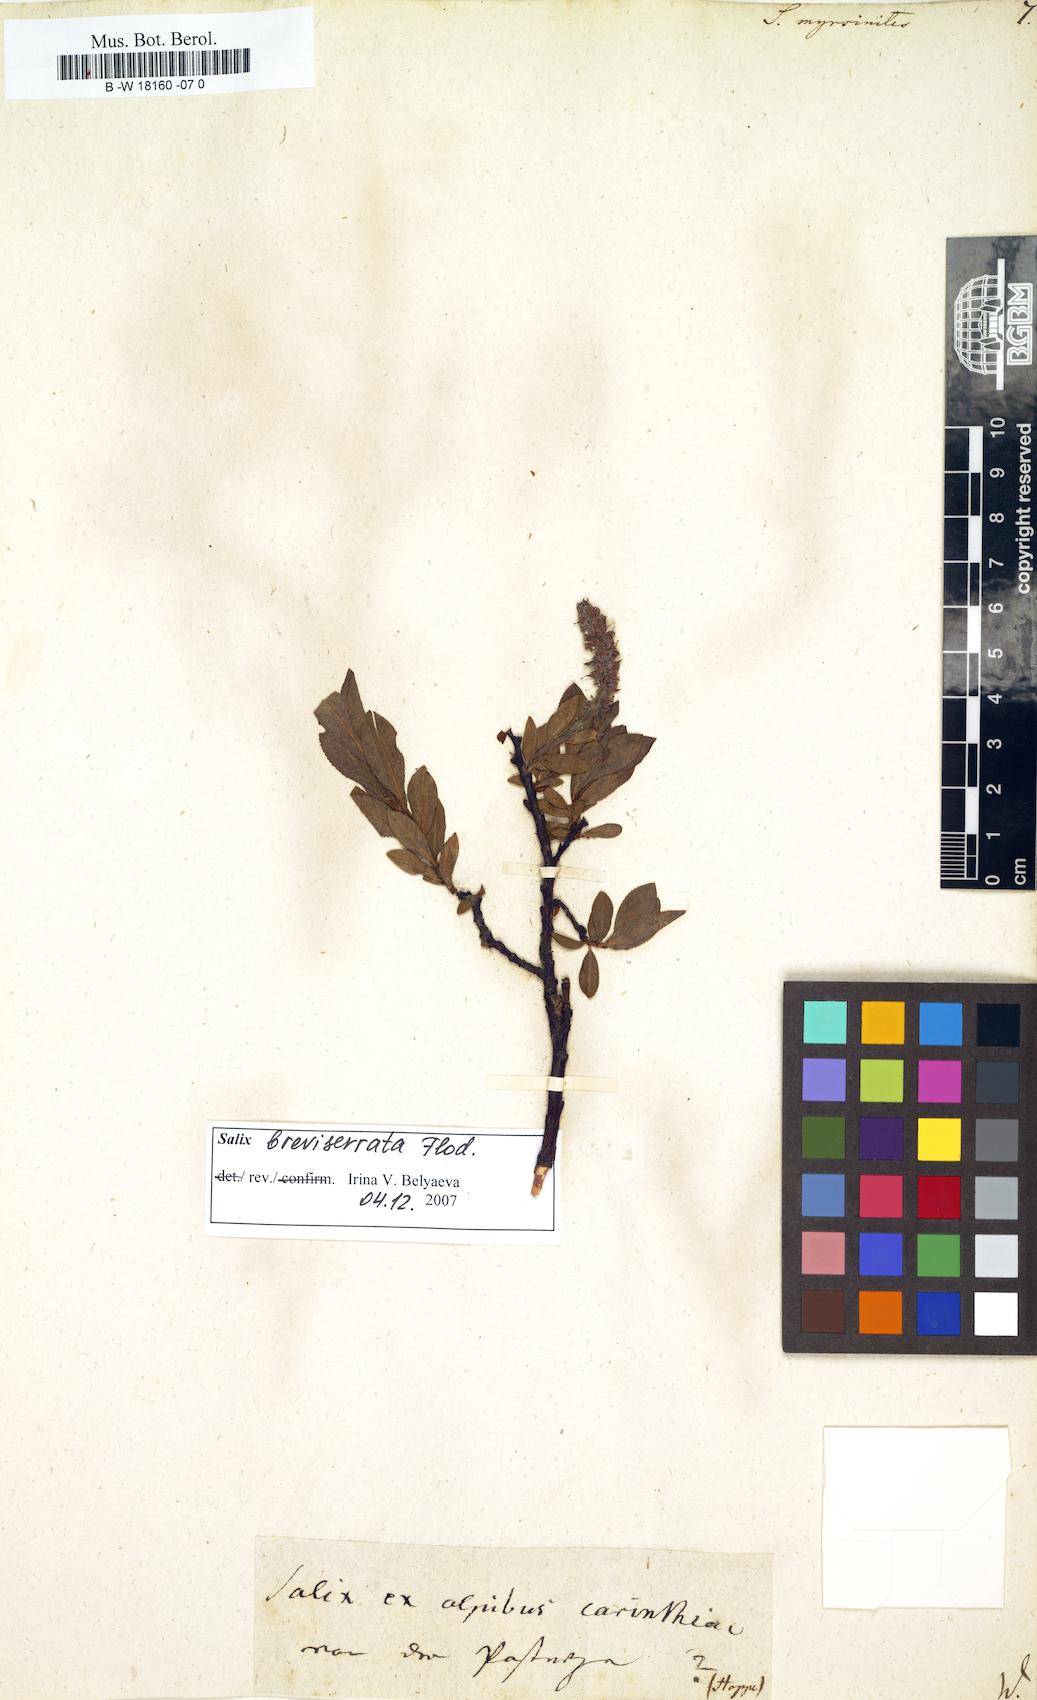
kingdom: Plantae
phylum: Tracheophyta
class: Magnoliopsida
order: Malpighiales
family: Salicaceae
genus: Salix
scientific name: Salix myrsinites
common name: Myrtle willow
